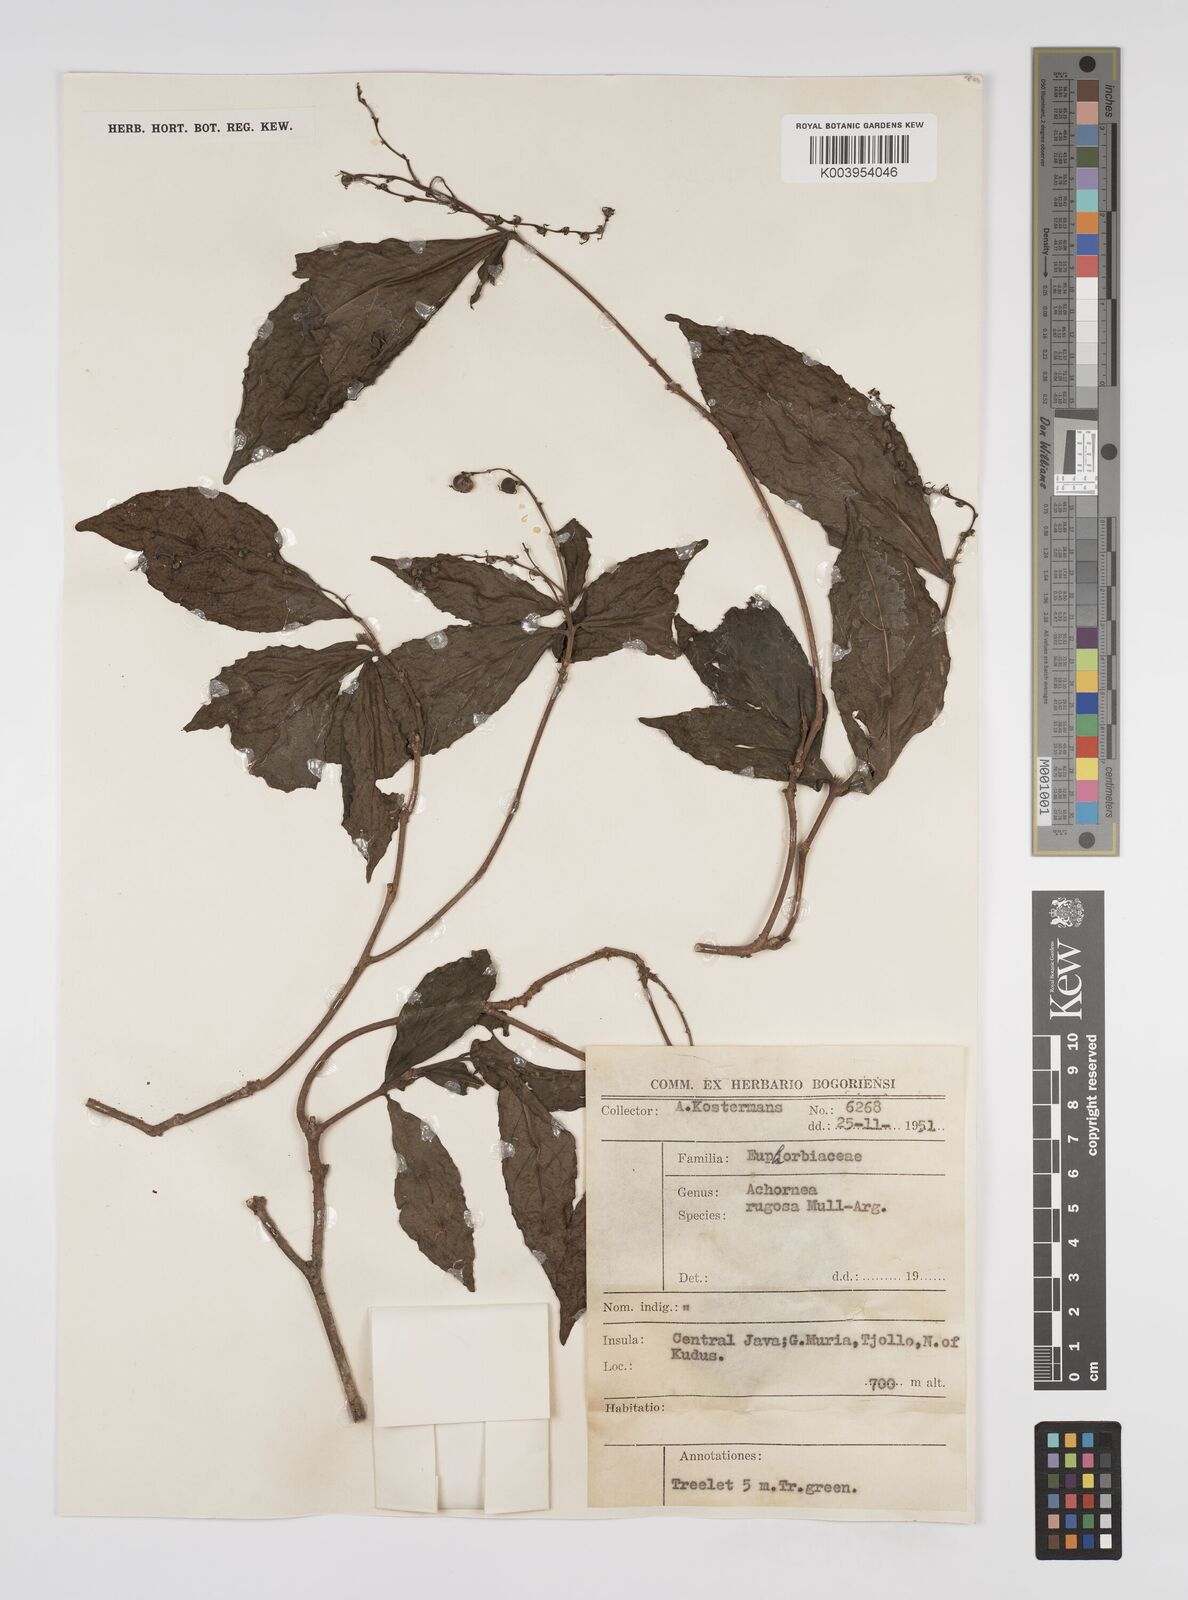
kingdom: Plantae
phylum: Tracheophyta
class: Magnoliopsida
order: Malpighiales
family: Euphorbiaceae
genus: Alchornea
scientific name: Alchornea rugosa
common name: Alchorntree
